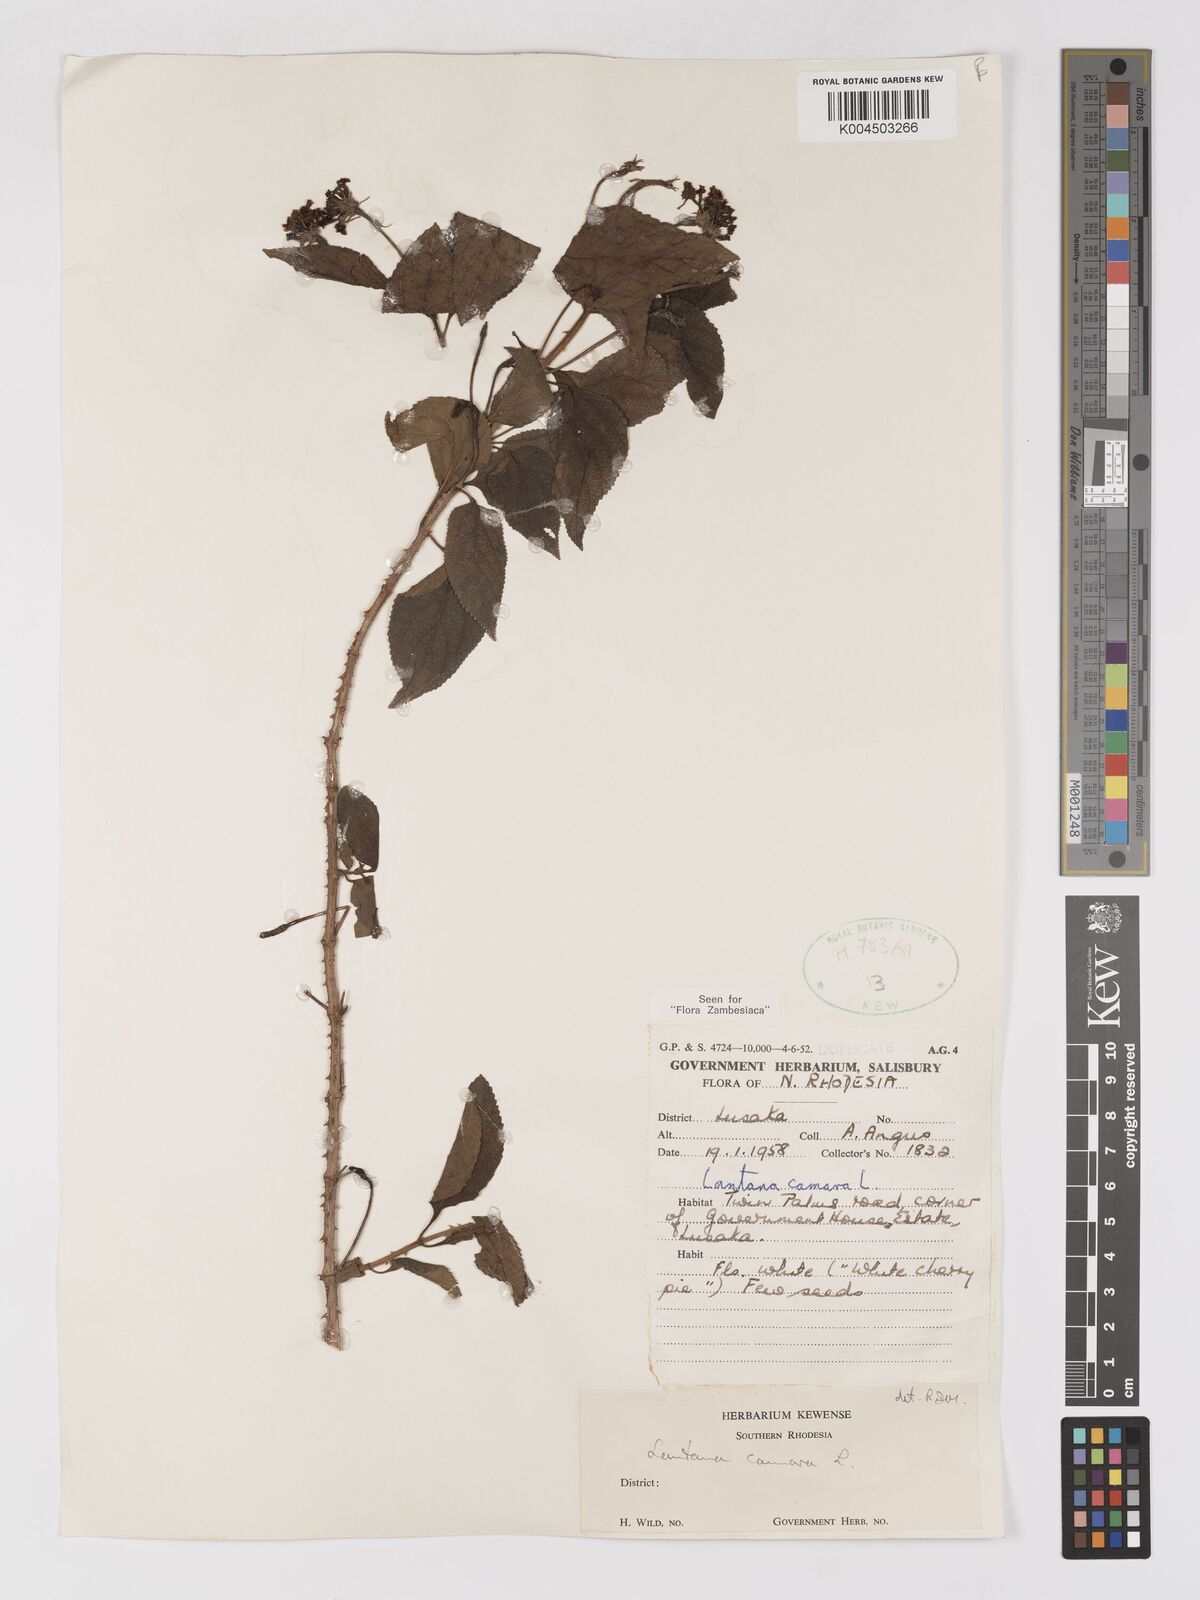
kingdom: Plantae
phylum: Tracheophyta
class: Magnoliopsida
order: Lamiales
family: Verbenaceae
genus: Lantana
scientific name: Lantana camara
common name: Lantana
